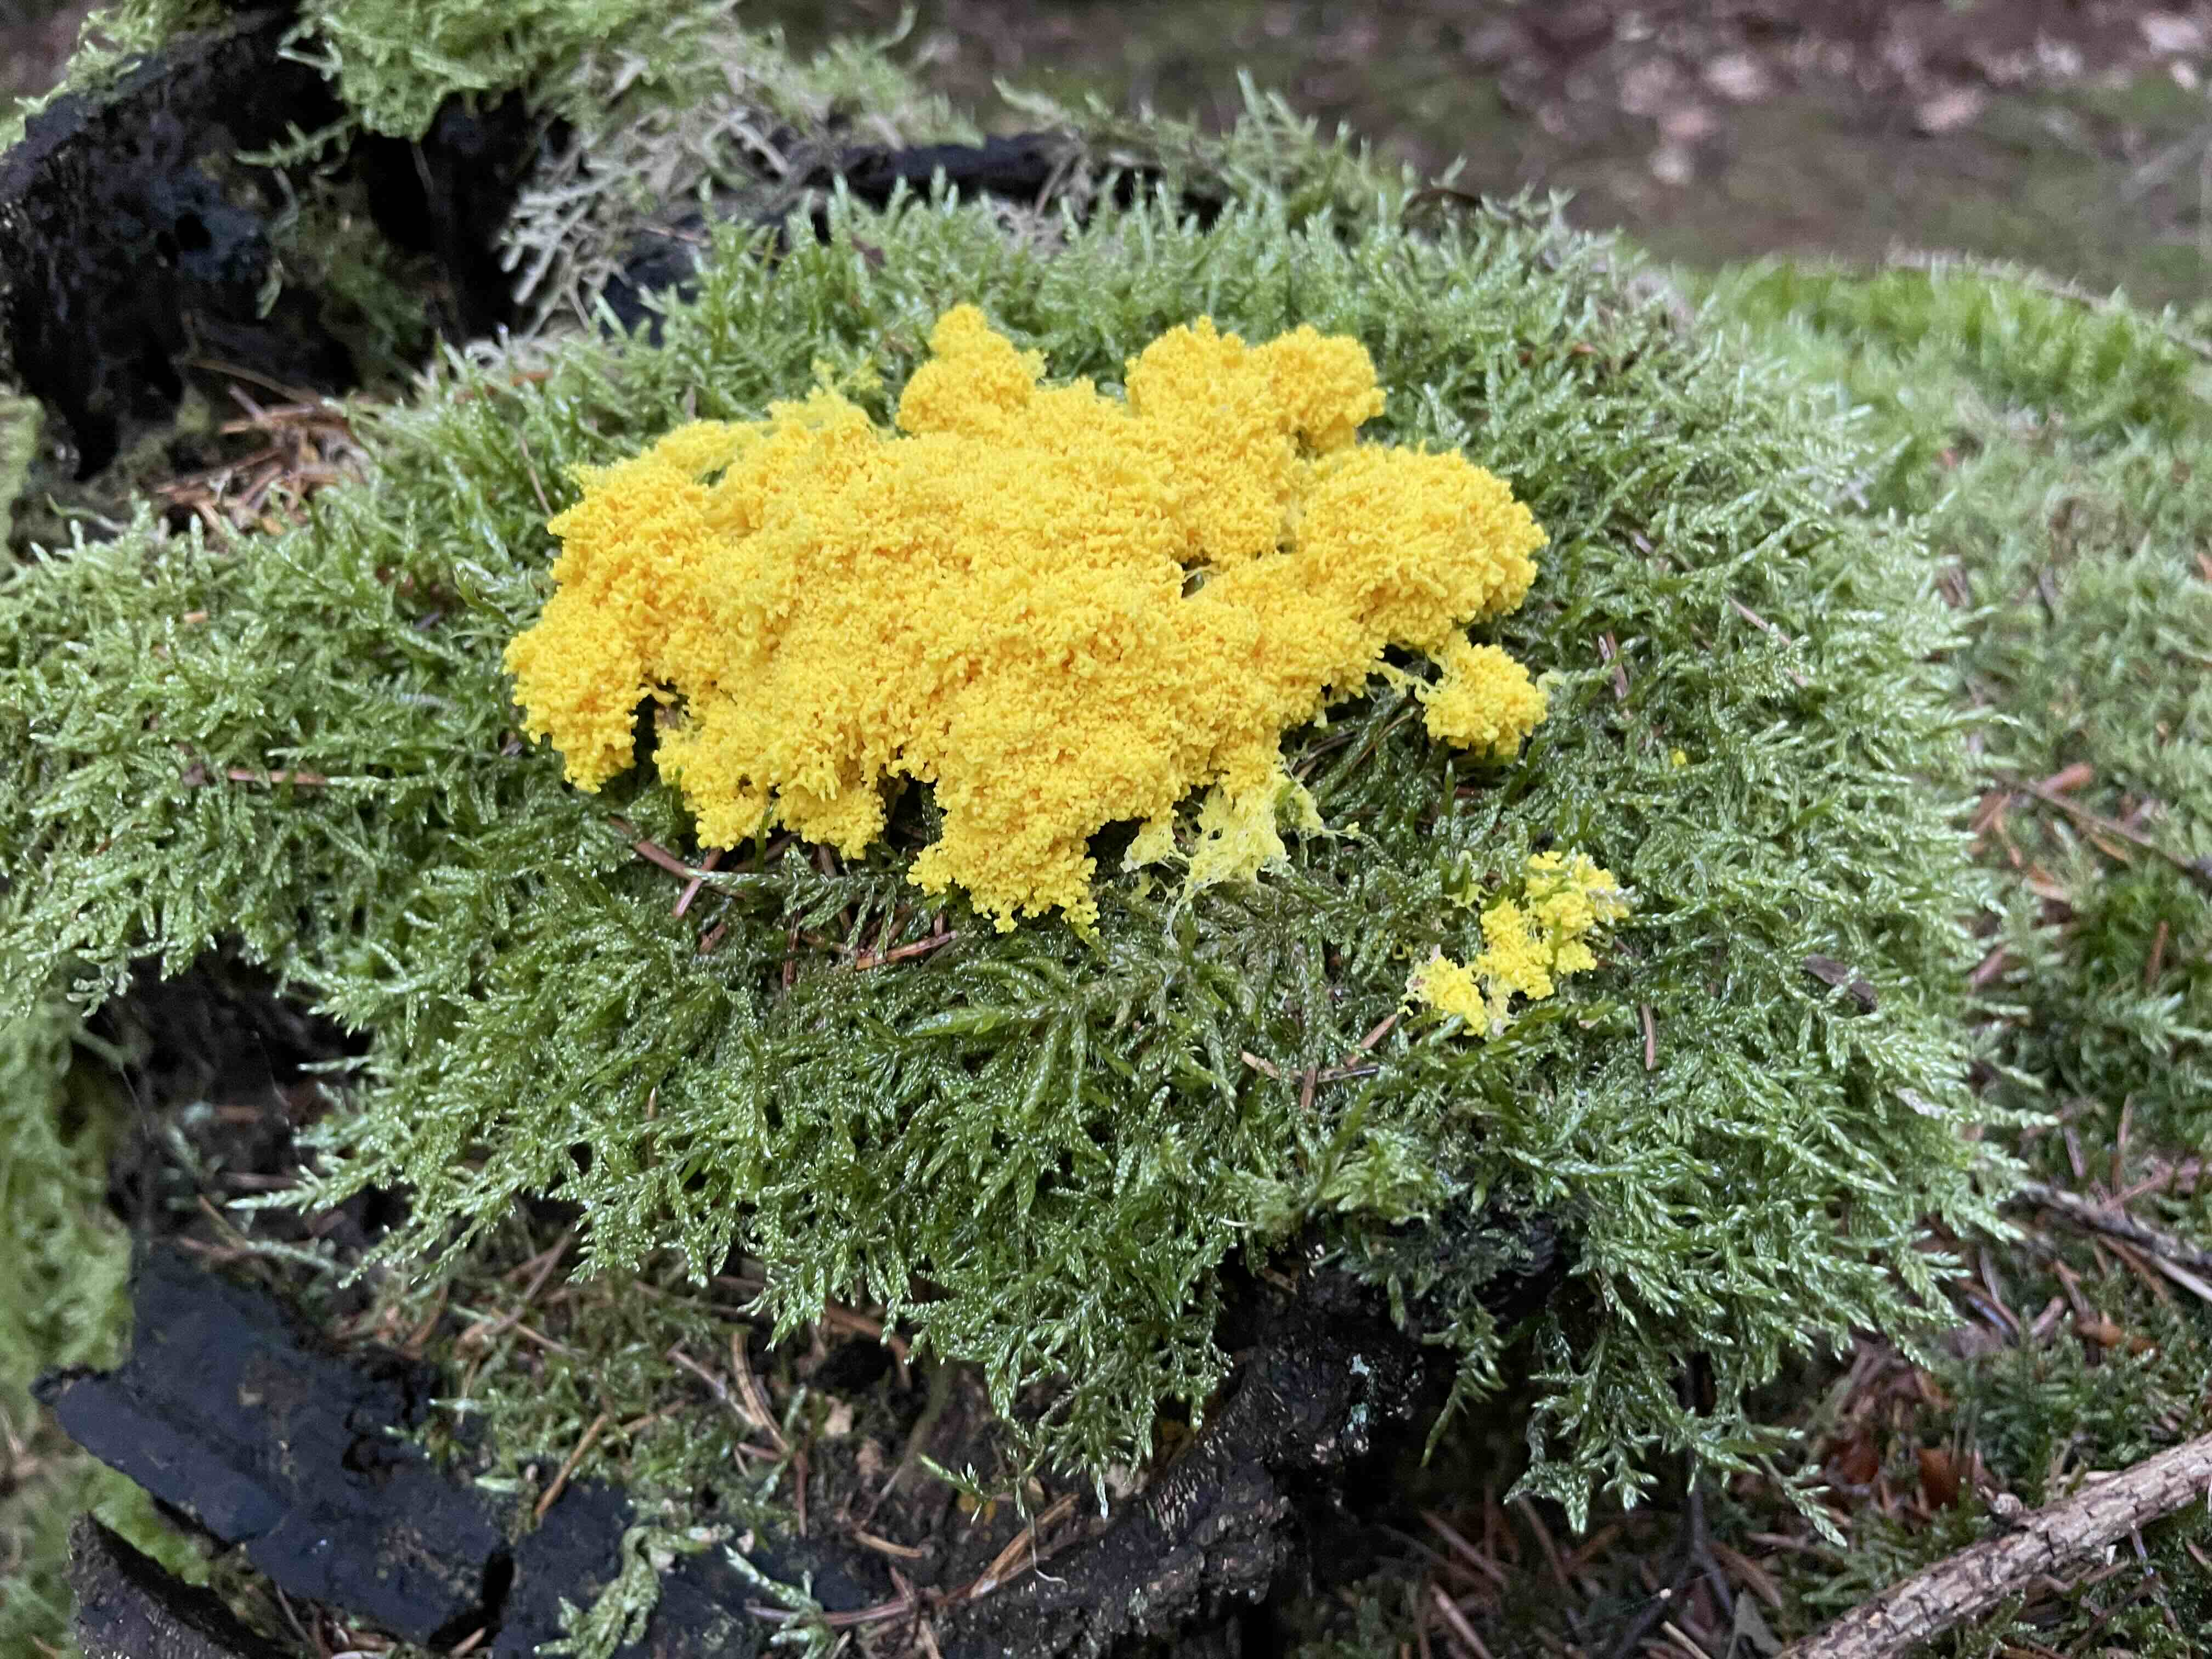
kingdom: Protozoa
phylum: Mycetozoa
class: Myxomycetes
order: Physarales
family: Physaraceae
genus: Fuligo
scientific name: Fuligo septica
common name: gul troldsmør
